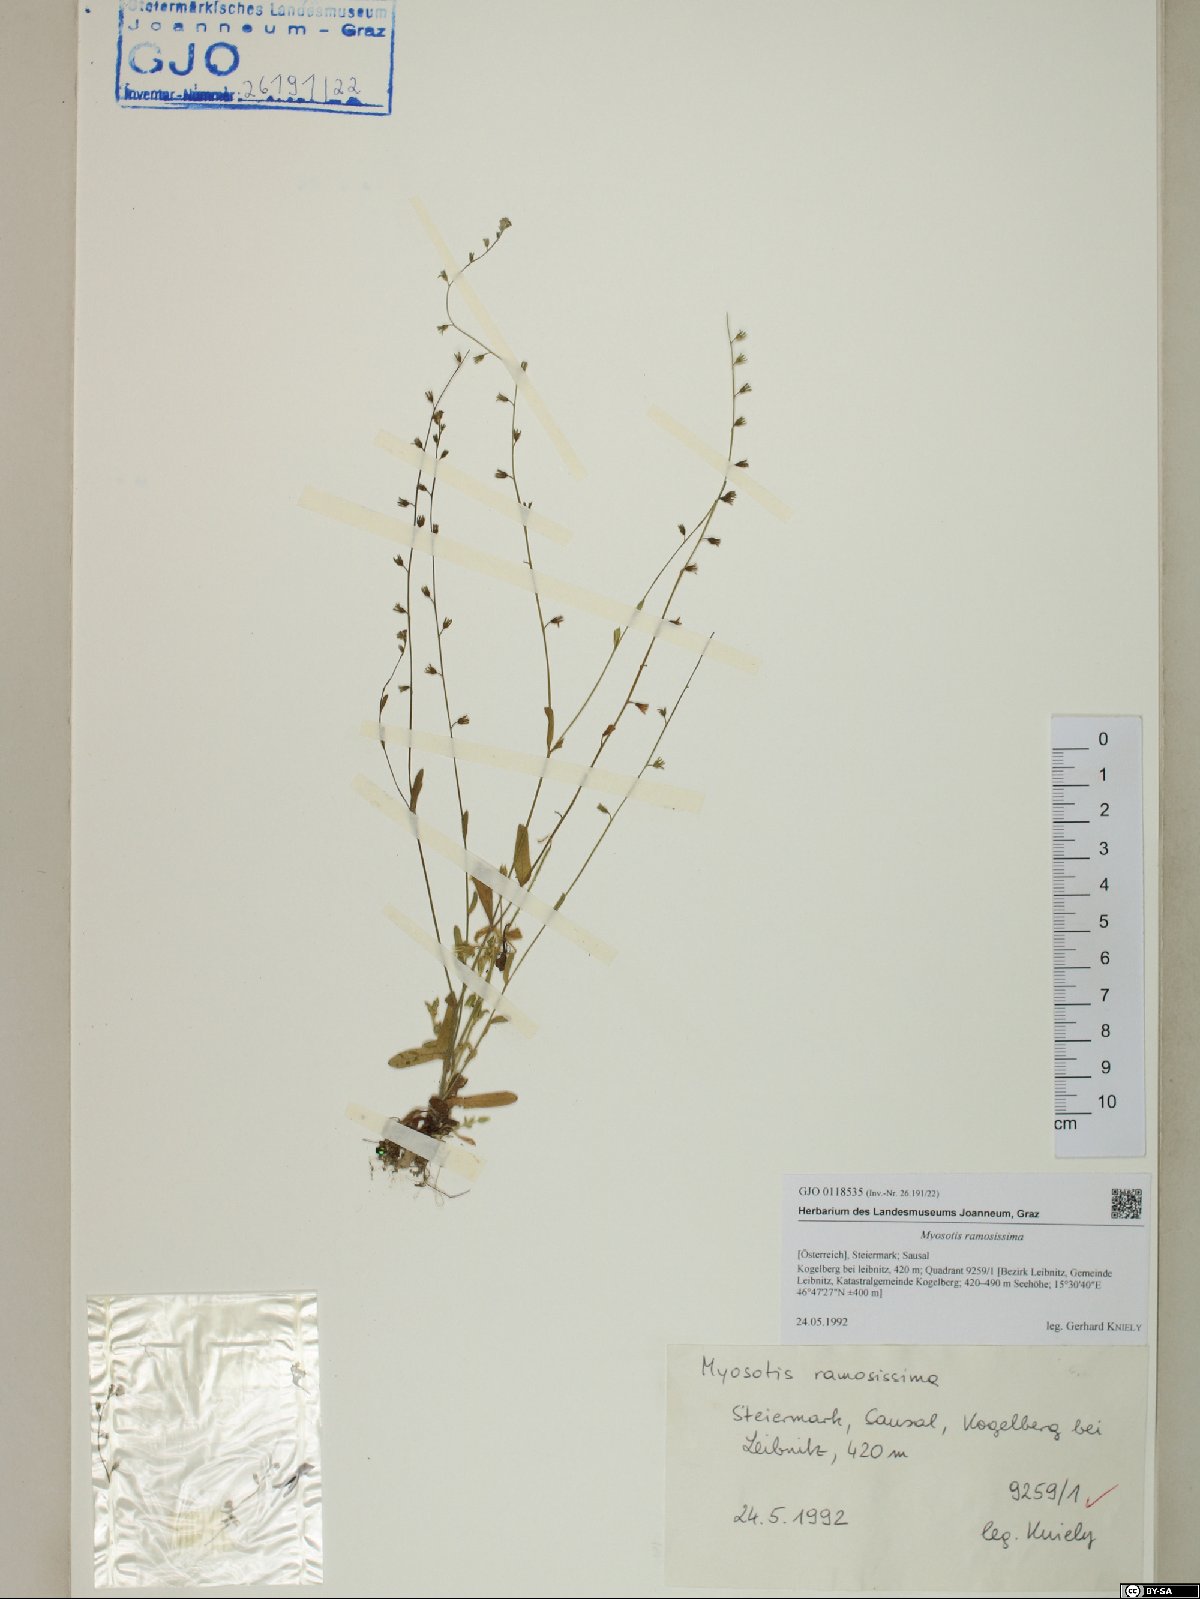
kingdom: Plantae
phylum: Tracheophyta
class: Magnoliopsida
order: Boraginales
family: Boraginaceae
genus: Myosotis
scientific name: Myosotis ramosissima
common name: Early forget-me-not
